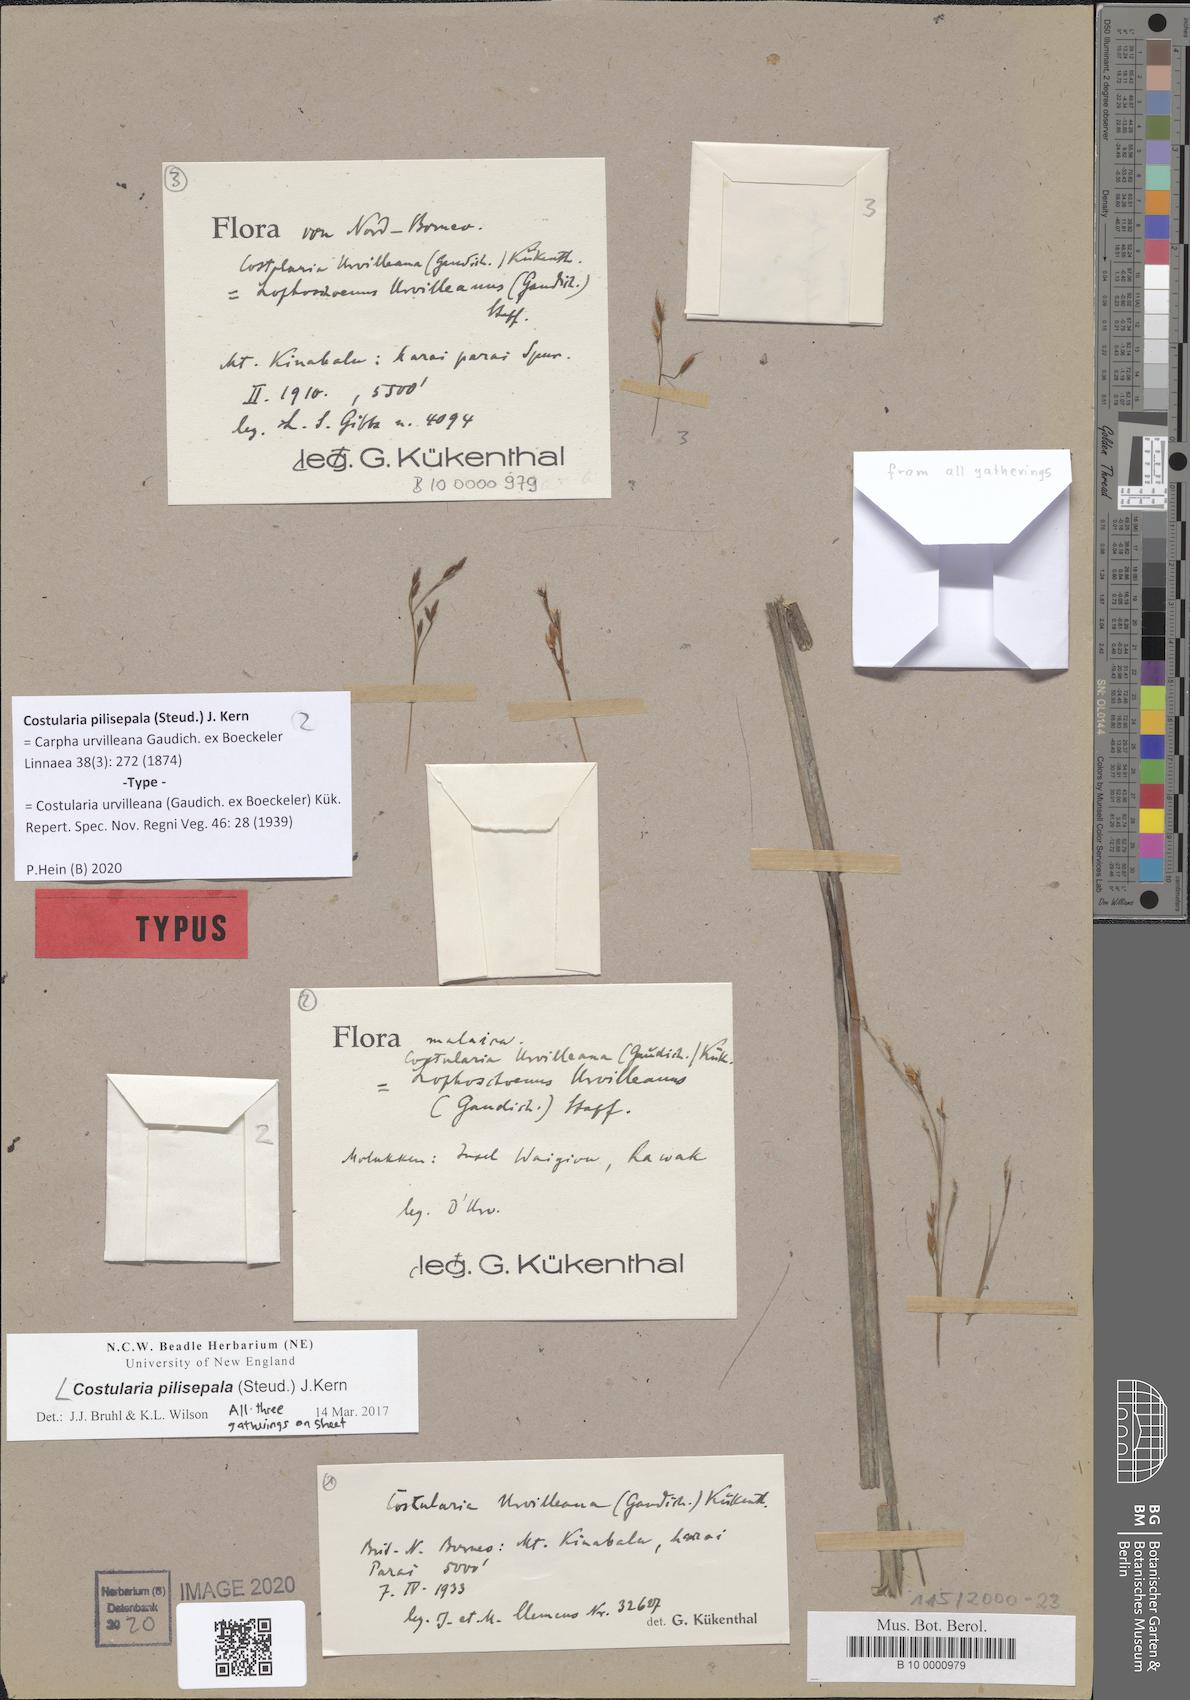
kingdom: Plantae
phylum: Tracheophyta
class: Liliopsida
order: Poales
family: Cyperaceae
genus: Tetraria
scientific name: Tetraria pilisepala
